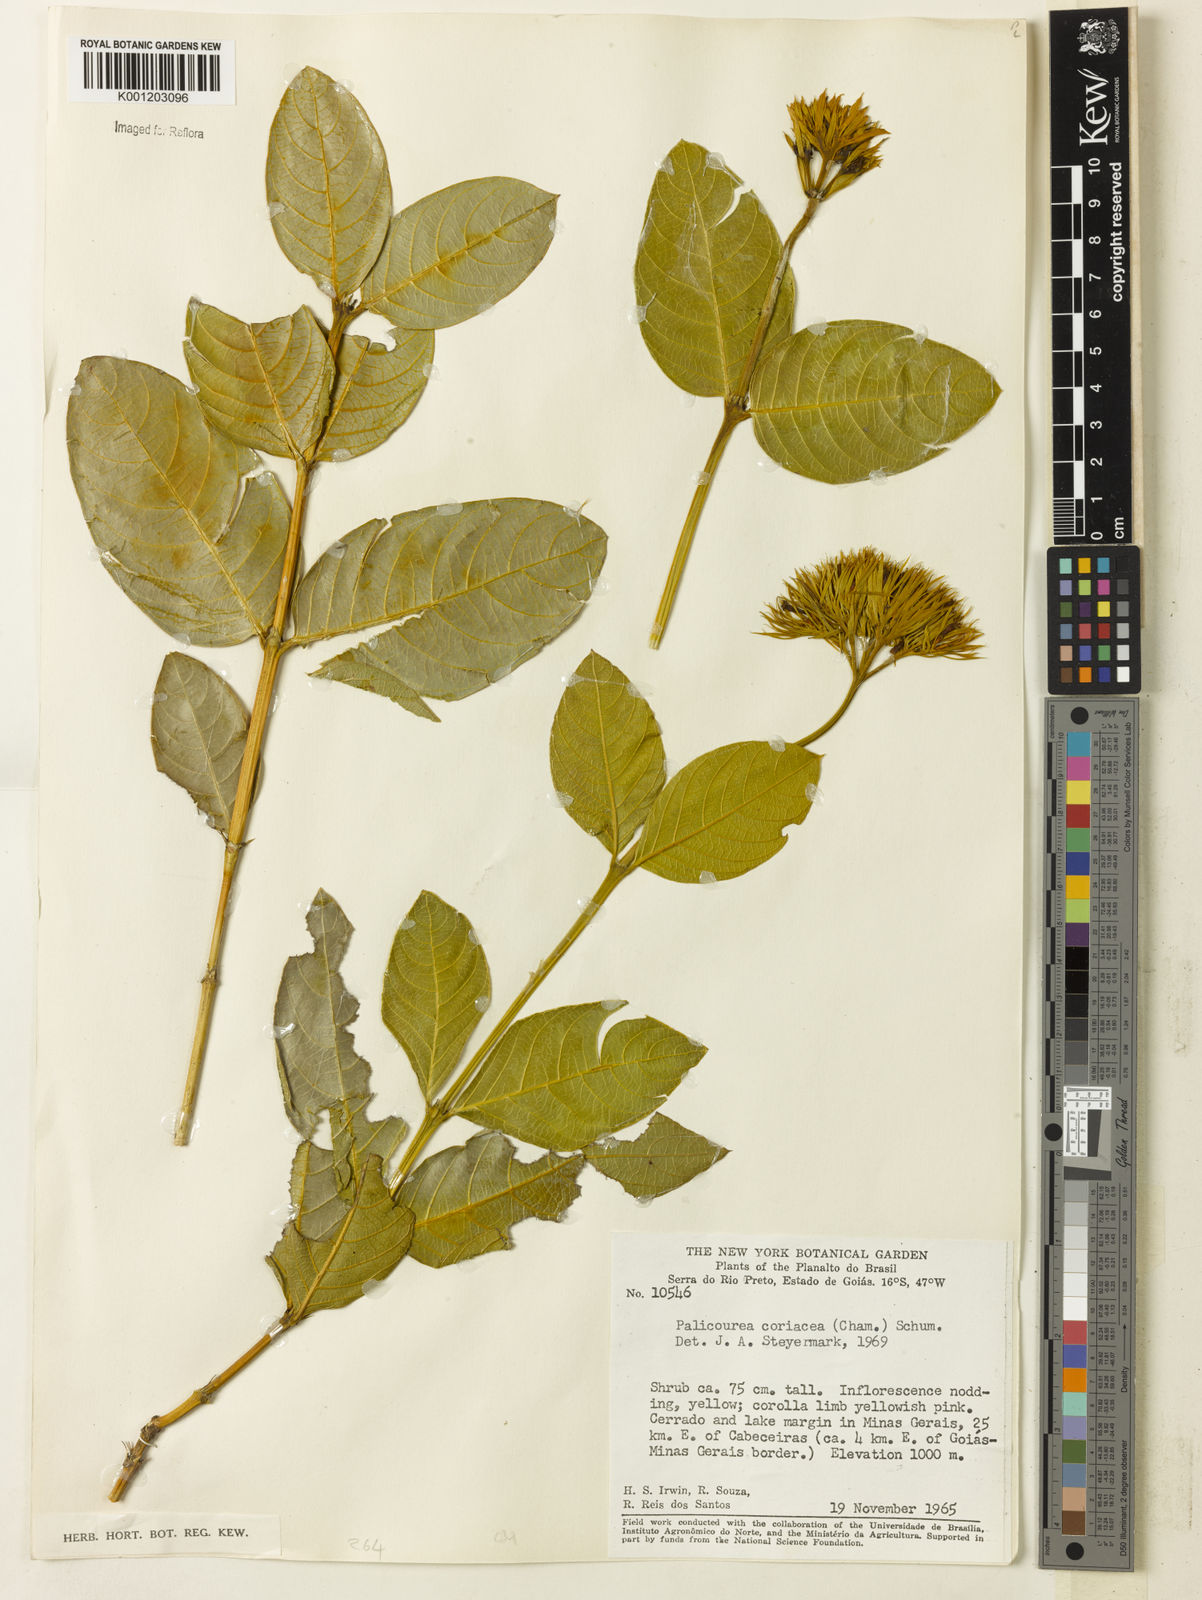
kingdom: Plantae
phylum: Tracheophyta
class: Magnoliopsida
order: Gentianales
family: Rubiaceae
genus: Palicourea
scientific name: Palicourea coriacea
